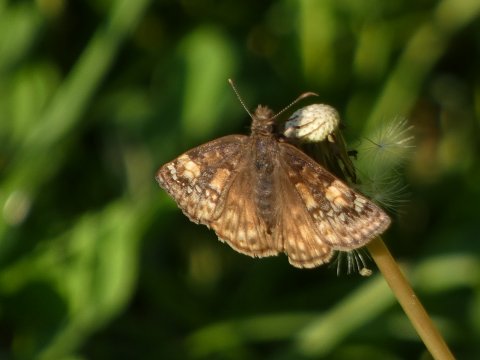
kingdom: Animalia
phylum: Arthropoda
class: Insecta
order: Lepidoptera
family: Hesperiidae
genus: Gesta
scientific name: Gesta
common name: Horace's Duskywing
